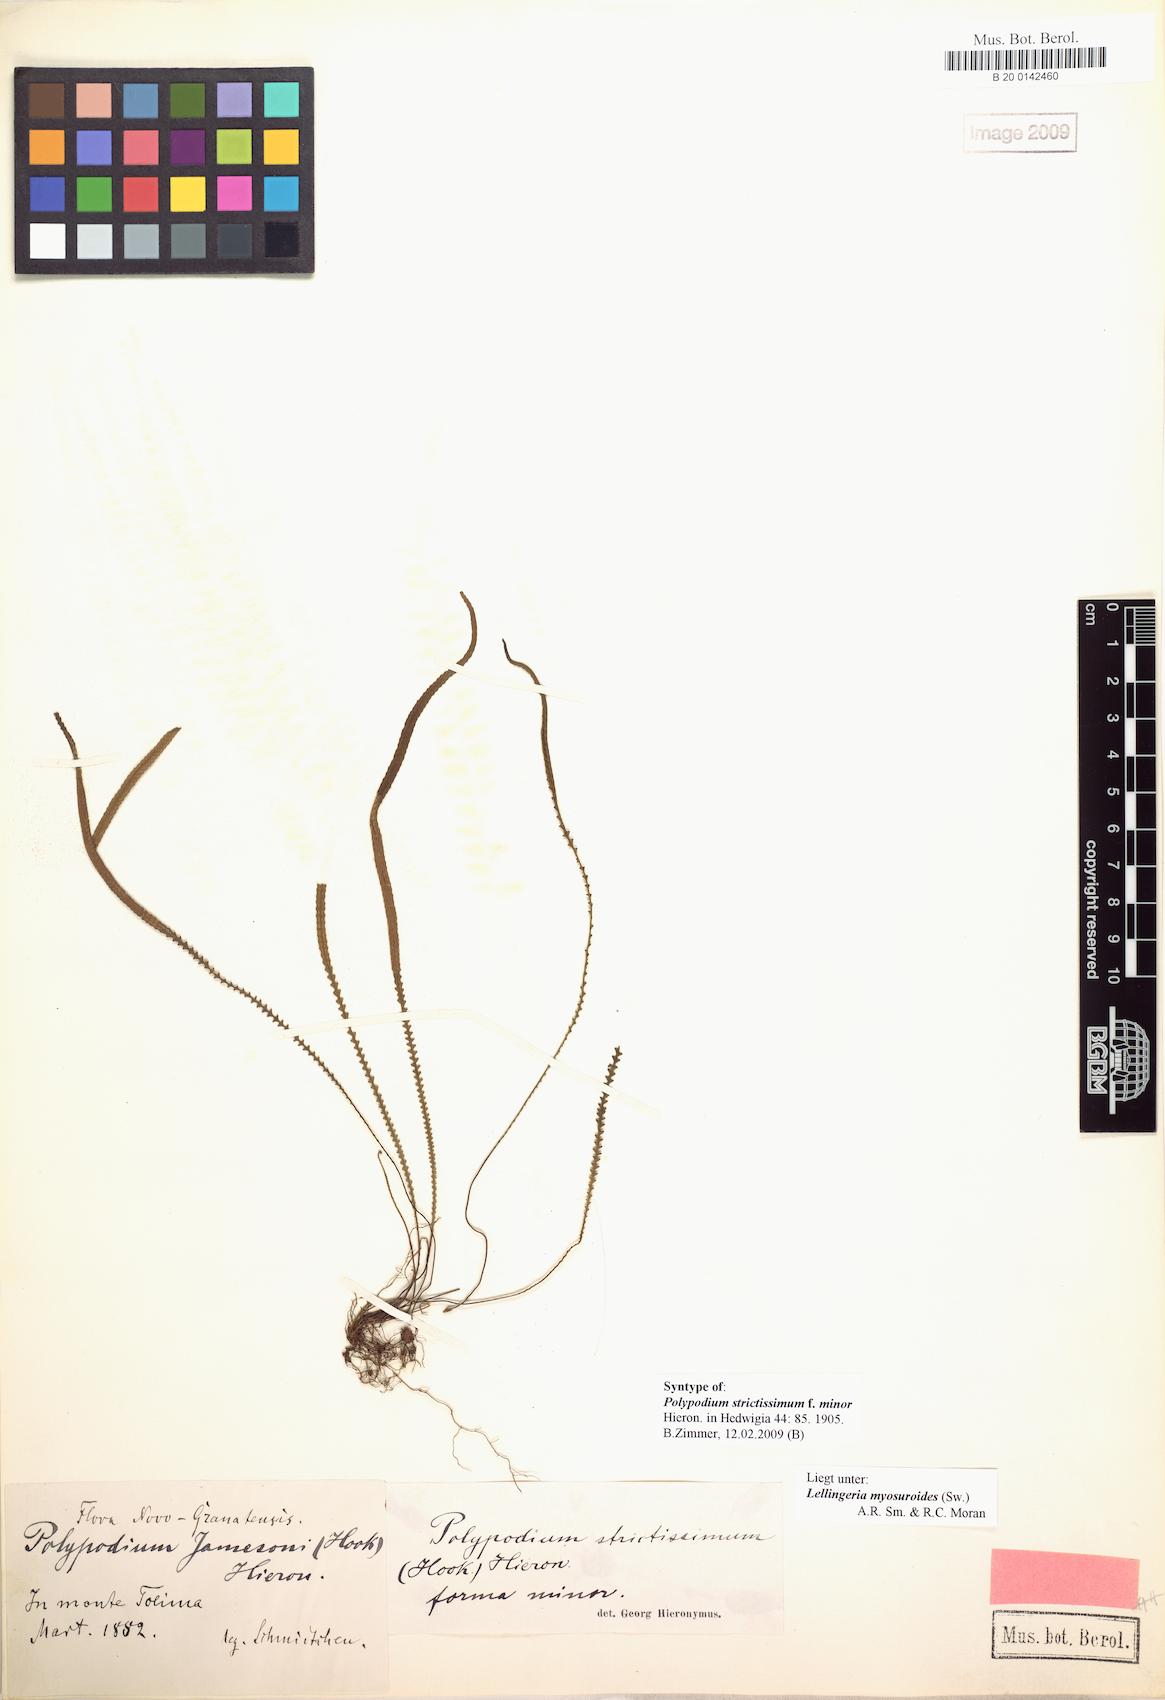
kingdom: Plantae
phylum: Tracheophyta
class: Polypodiopsida
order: Polypodiales
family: Polypodiaceae
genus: Stenogrammitis
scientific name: Stenogrammitis jamesonii
